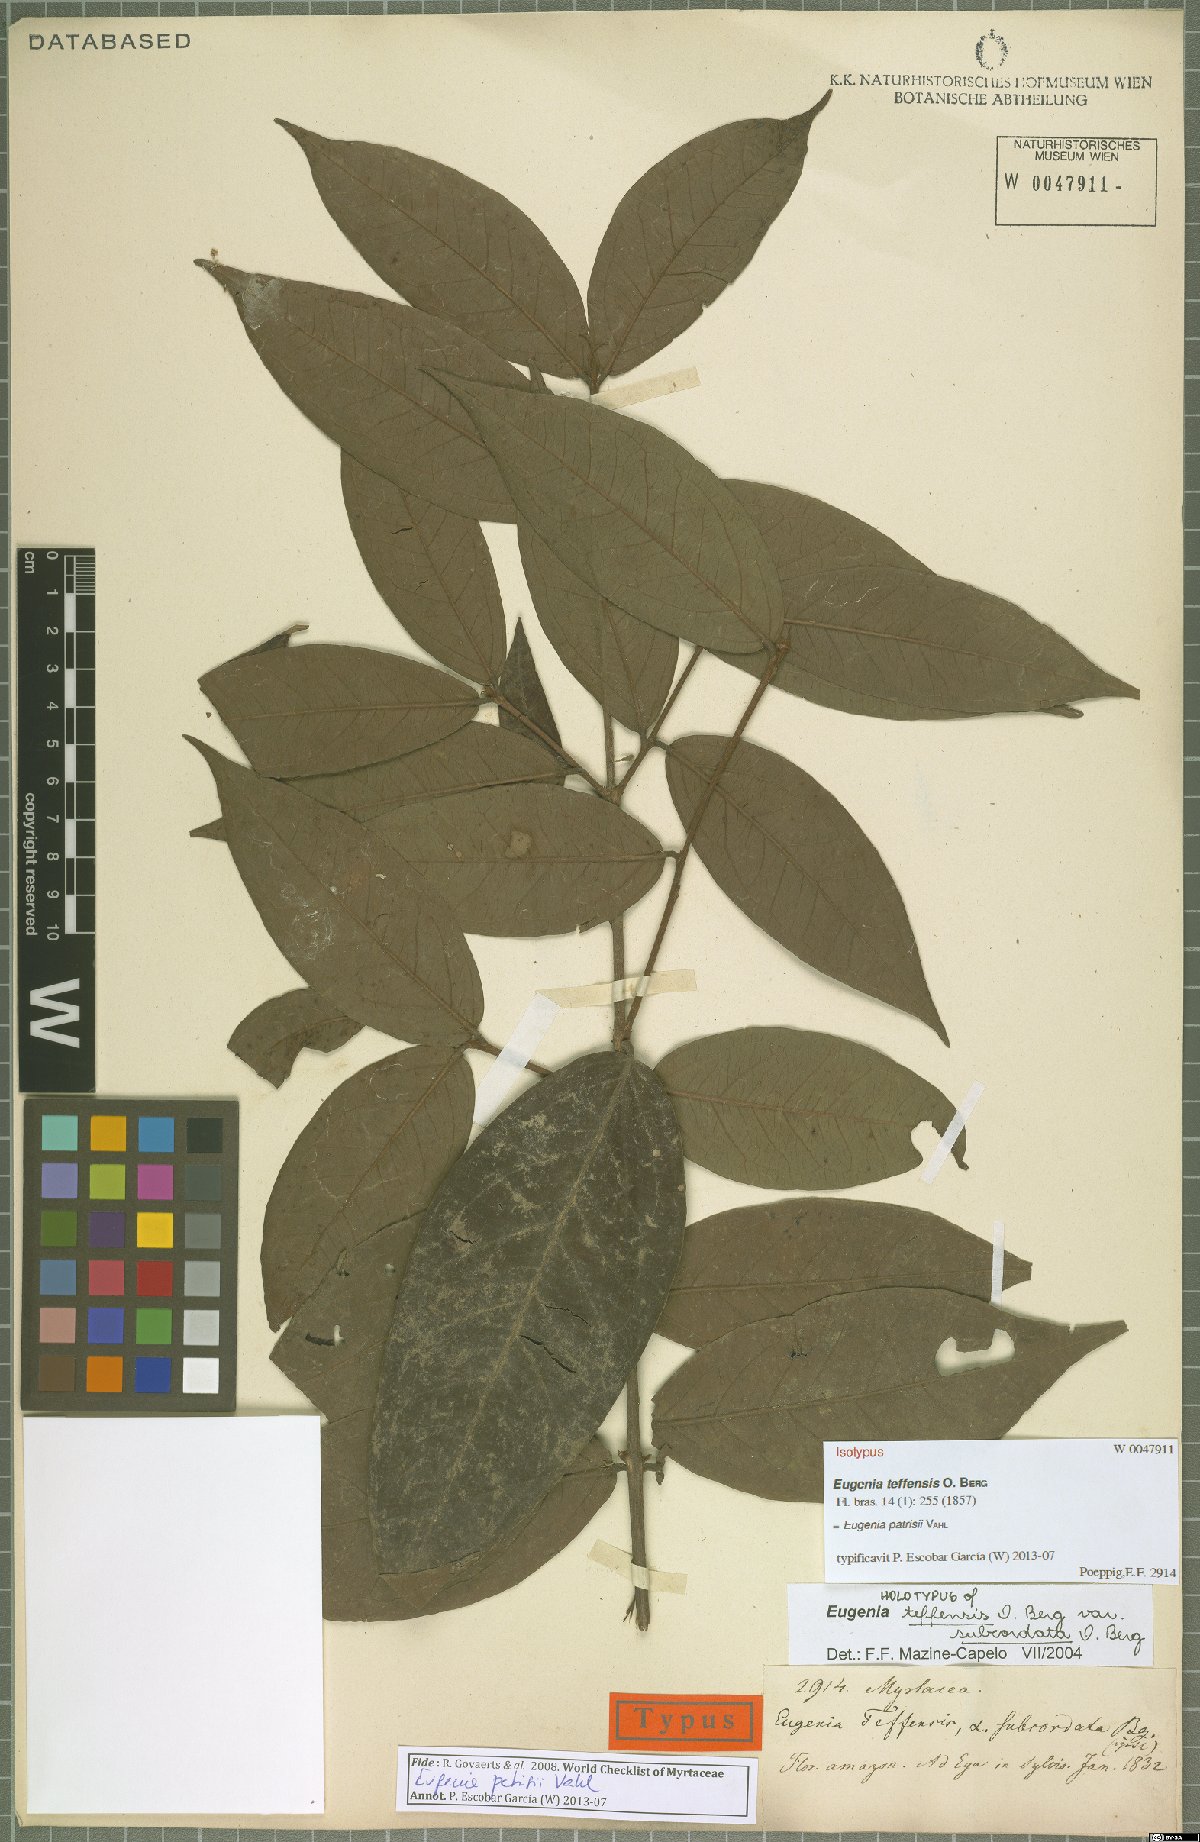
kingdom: Plantae
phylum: Tracheophyta
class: Magnoliopsida
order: Myrtales
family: Myrtaceae
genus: Eugenia
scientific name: Eugenia patrisii
